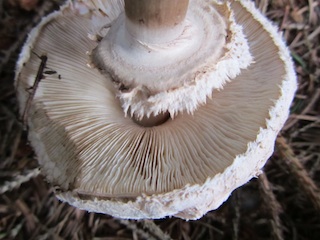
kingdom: Fungi
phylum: Basidiomycota
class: Agaricomycetes
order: Agaricales
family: Agaricaceae
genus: Chlorophyllum
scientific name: Chlorophyllum olivieri
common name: almindelig rabarberhat
